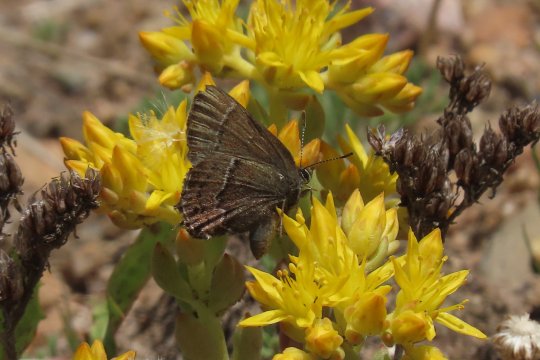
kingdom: Animalia
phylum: Arthropoda
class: Insecta
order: Lepidoptera
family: Lycaenidae
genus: Mitoura
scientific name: Mitoura spinetorum
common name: Thicket Hairstreak
